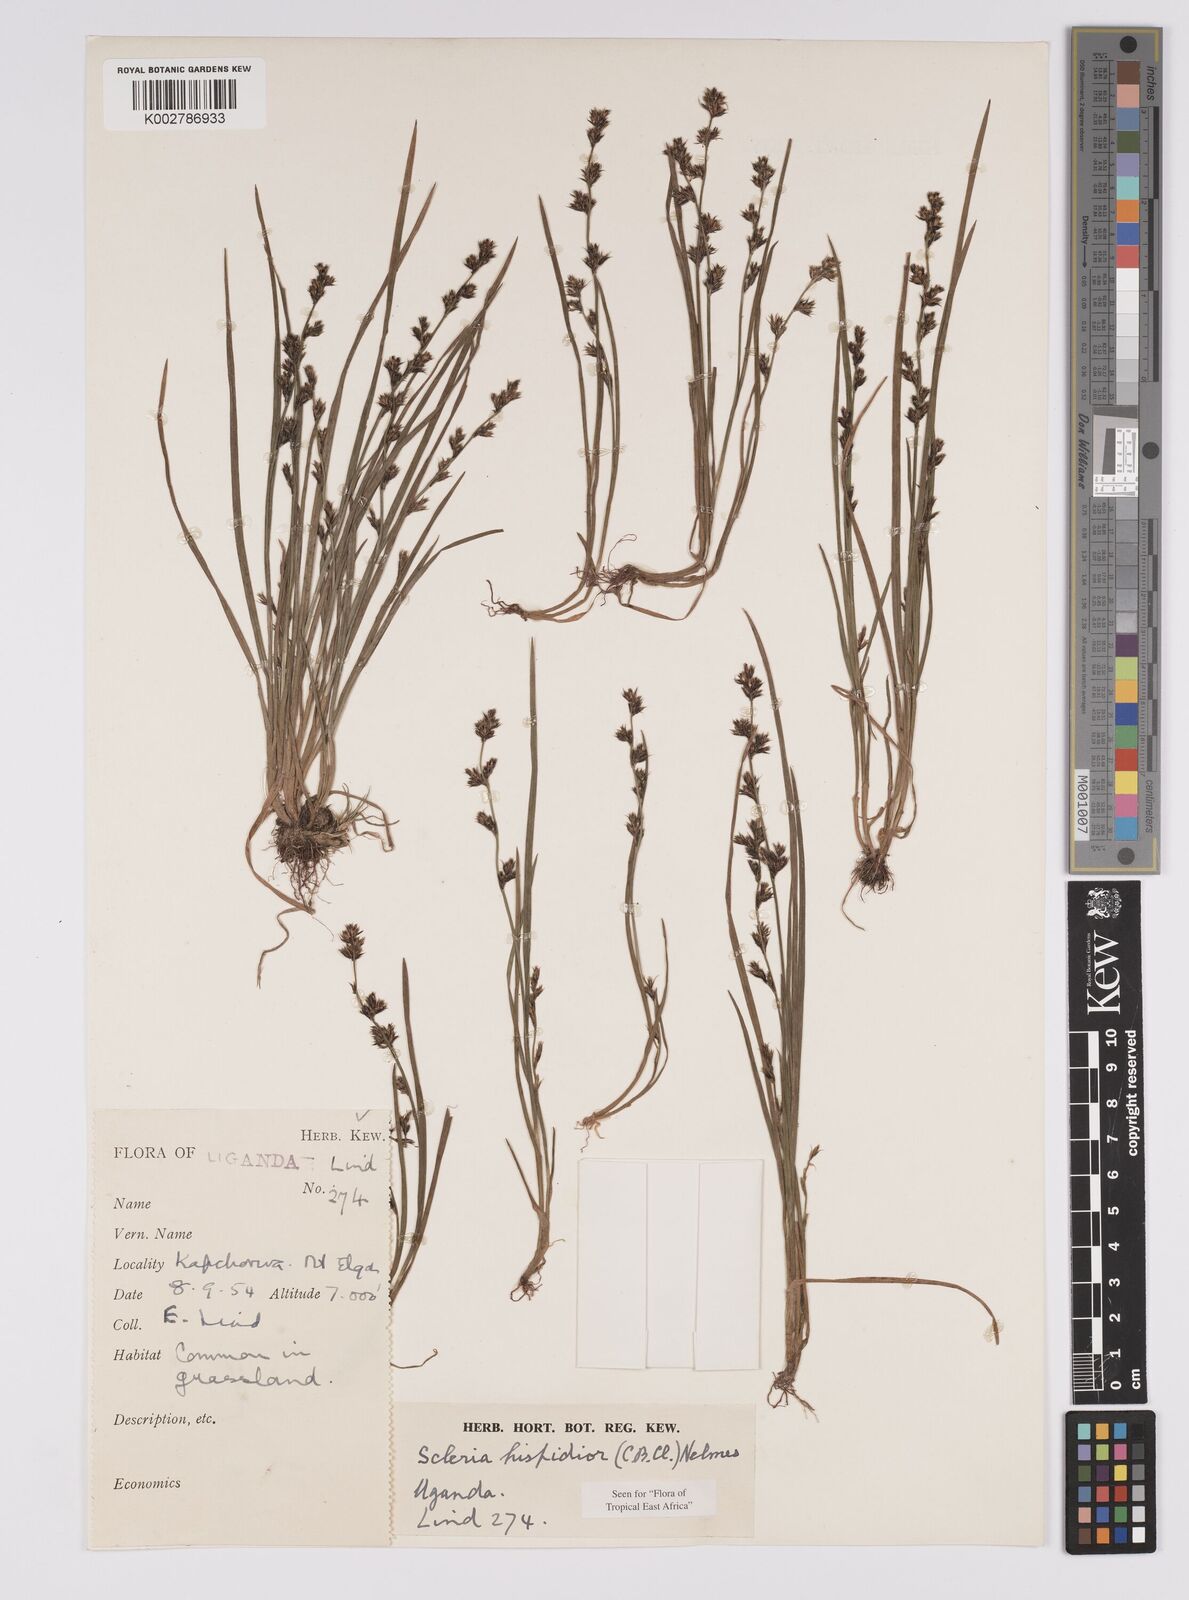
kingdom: Plantae
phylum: Tracheophyta
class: Liliopsida
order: Poales
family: Cyperaceae
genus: Scleria
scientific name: Scleria hispidula
